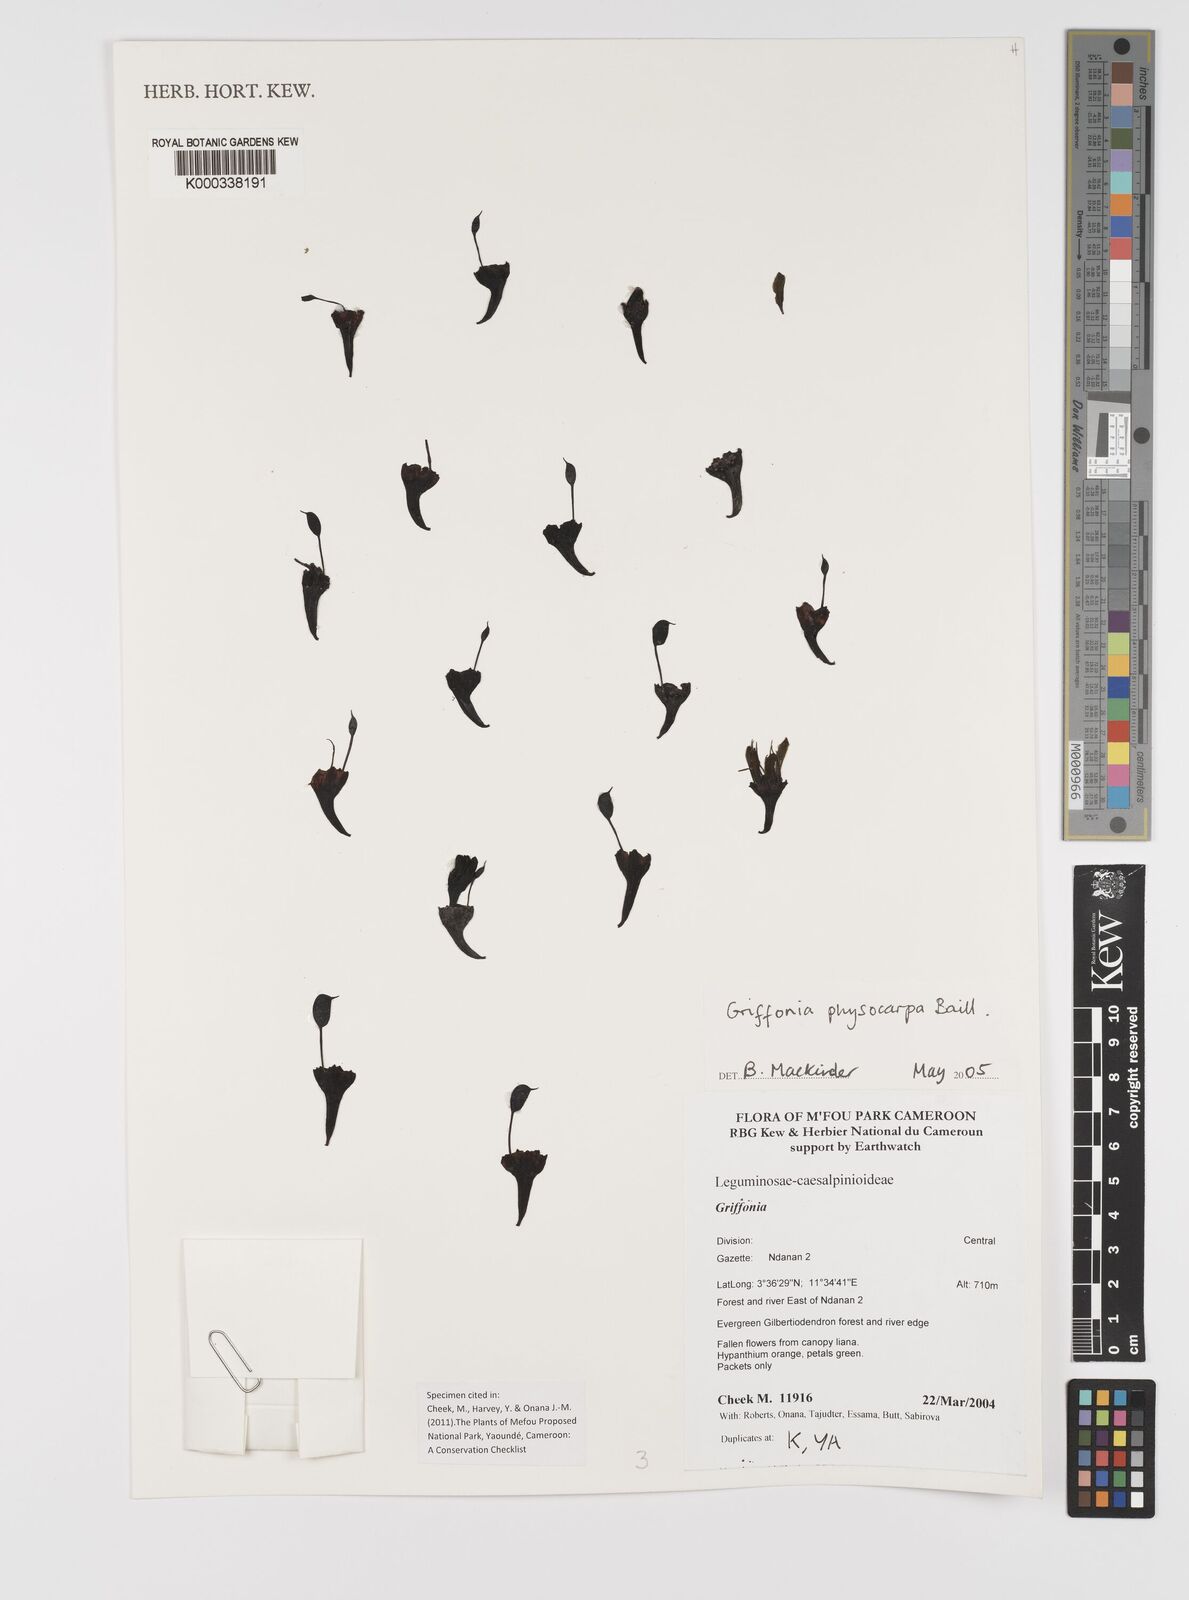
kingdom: Plantae
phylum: Tracheophyta
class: Magnoliopsida
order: Fabales
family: Fabaceae
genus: Griffonia
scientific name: Griffonia physocarpa
